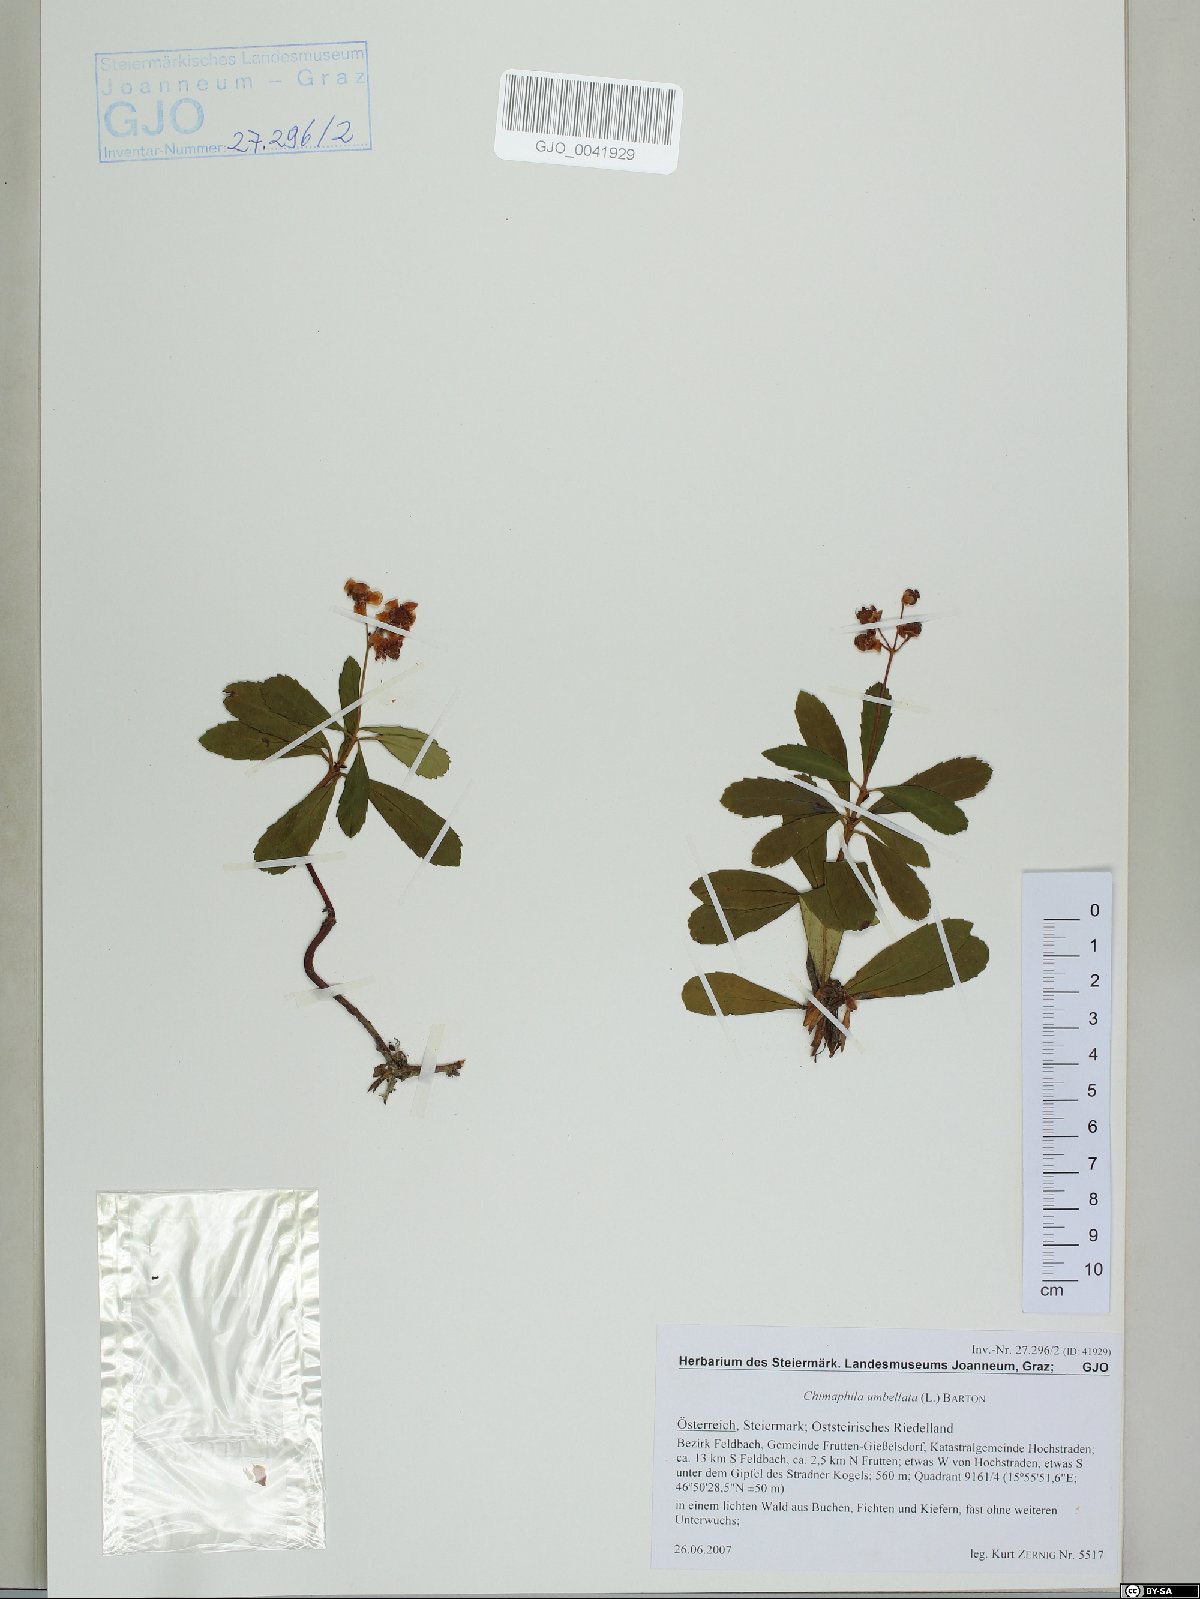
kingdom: Plantae
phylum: Tracheophyta
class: Magnoliopsida
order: Ericales
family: Ericaceae
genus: Chimaphila
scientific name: Chimaphila umbellata
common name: Pipsissewa
